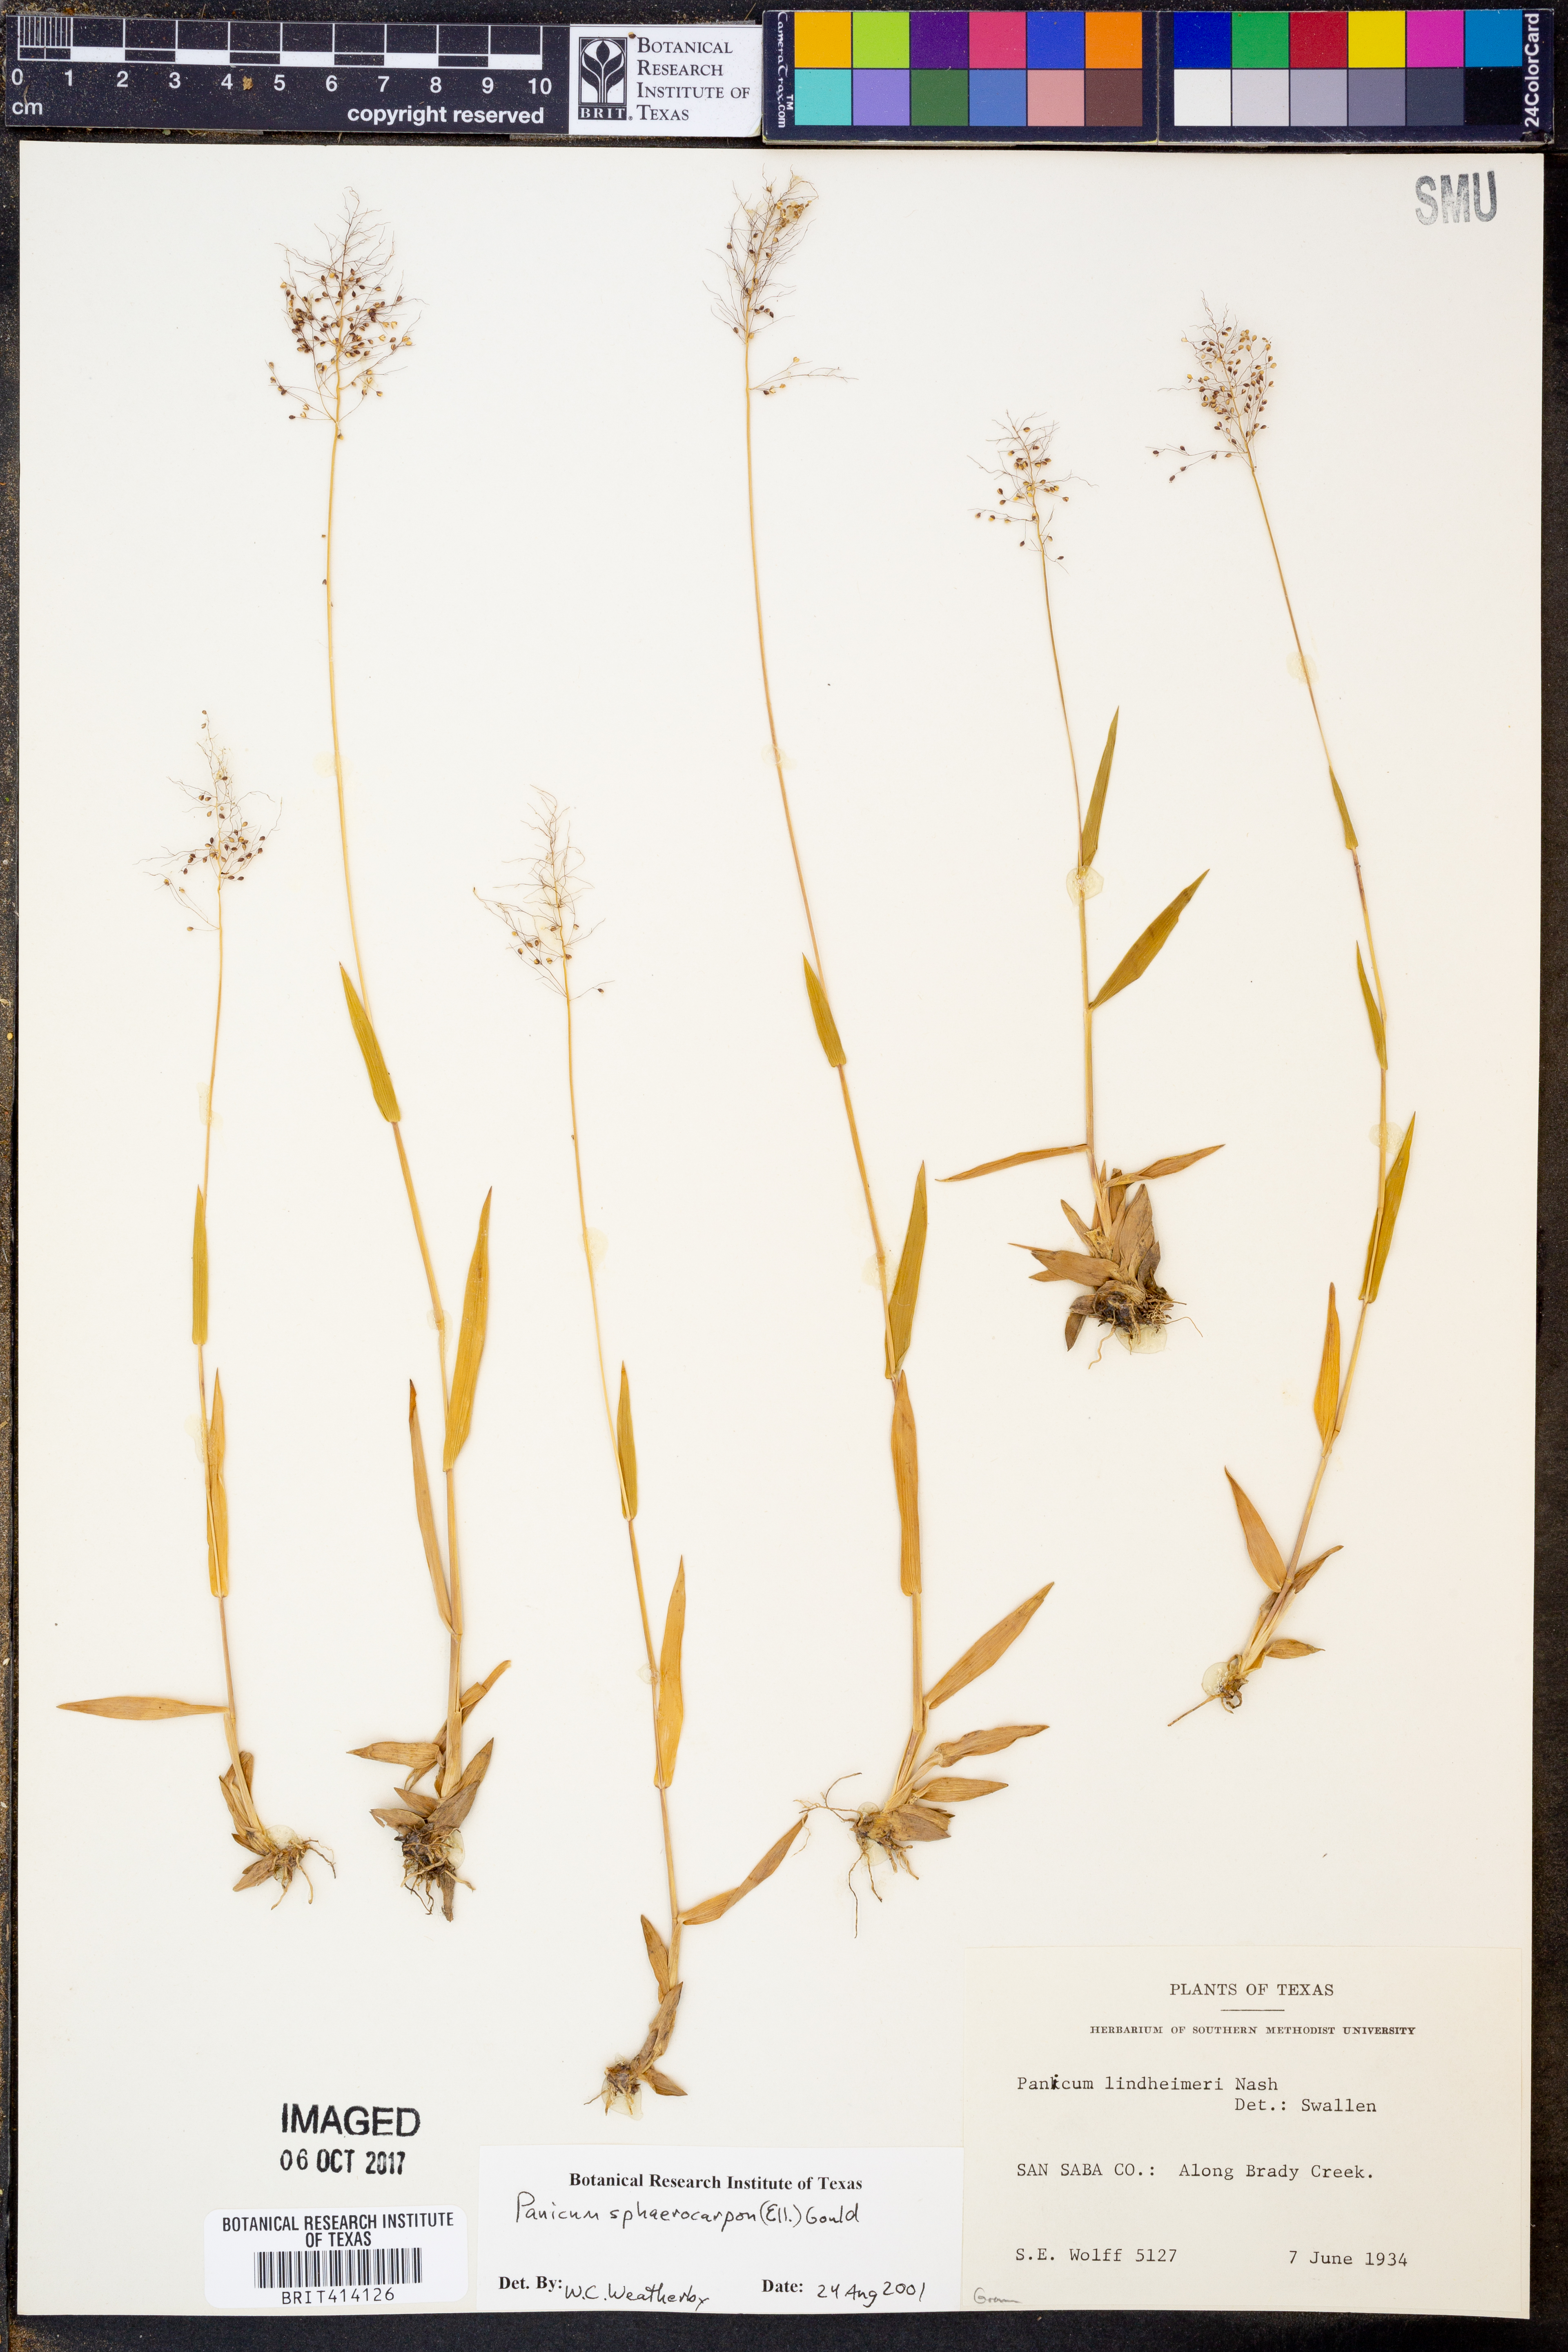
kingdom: Plantae
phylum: Tracheophyta
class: Liliopsida
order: Poales
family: Poaceae
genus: Dichanthelium
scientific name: Dichanthelium sphaerocarpon
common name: Round-fruited panicgrass
